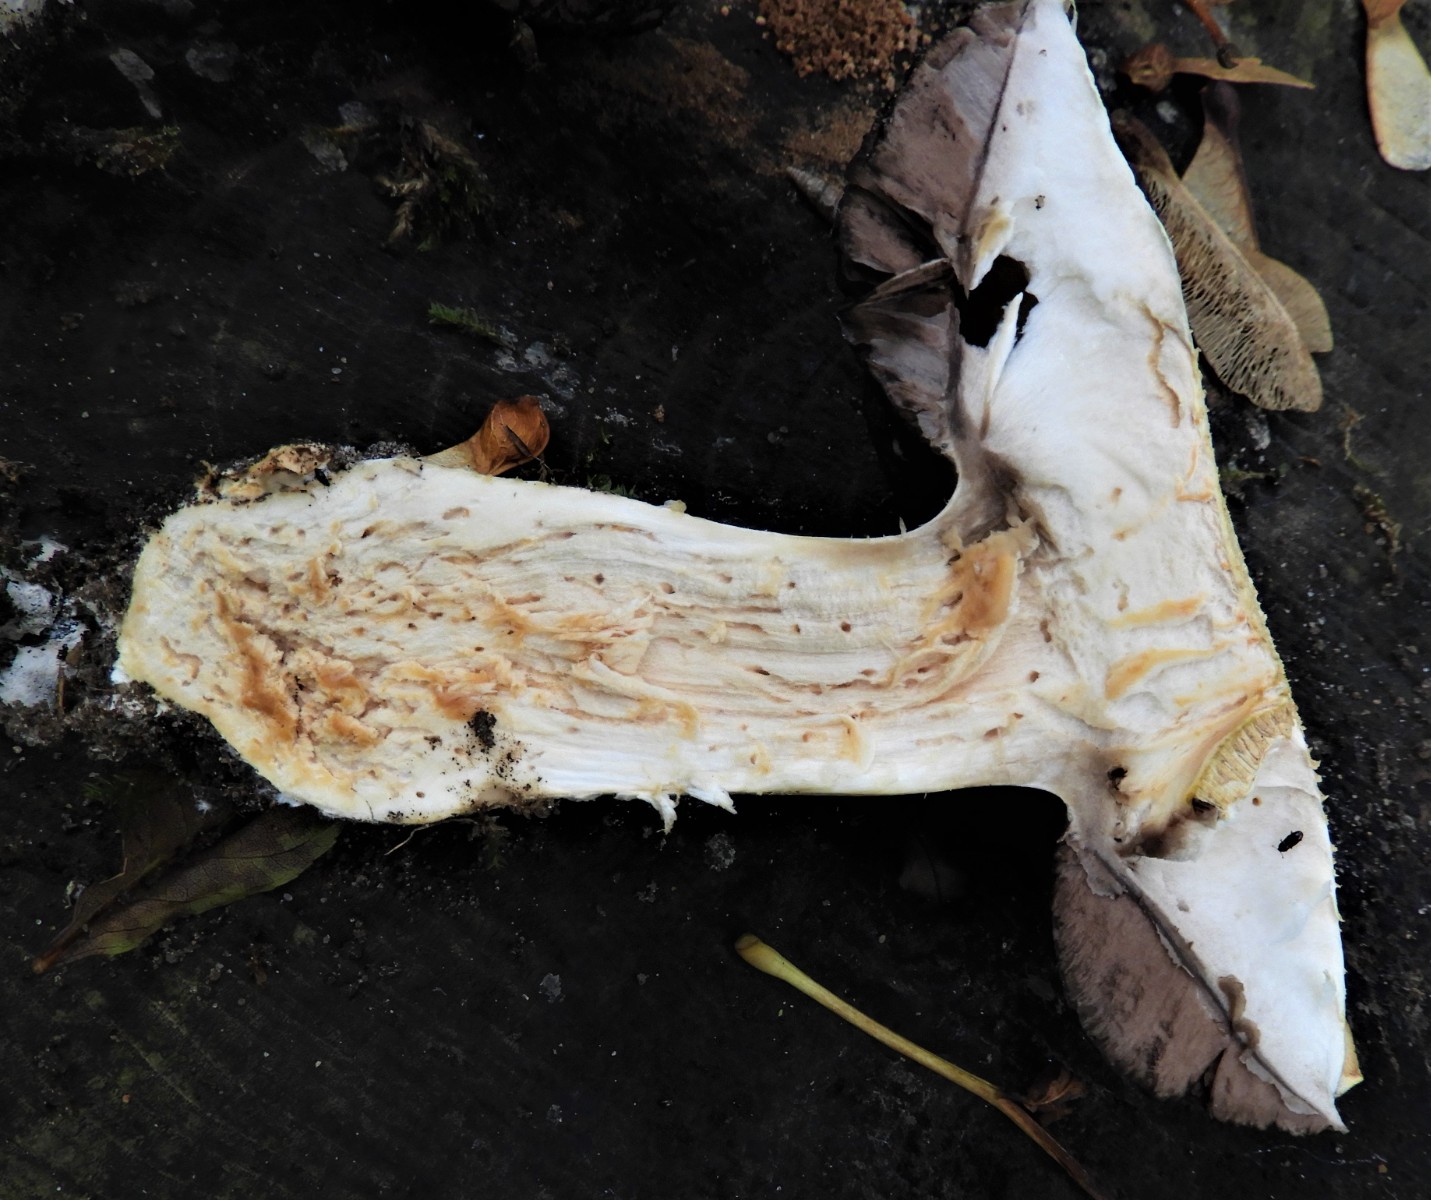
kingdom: Fungi
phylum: Basidiomycota
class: Agaricomycetes
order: Agaricales
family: Agaricaceae
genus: Agaricus
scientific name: Agaricus augustus
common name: prægtig champignon
